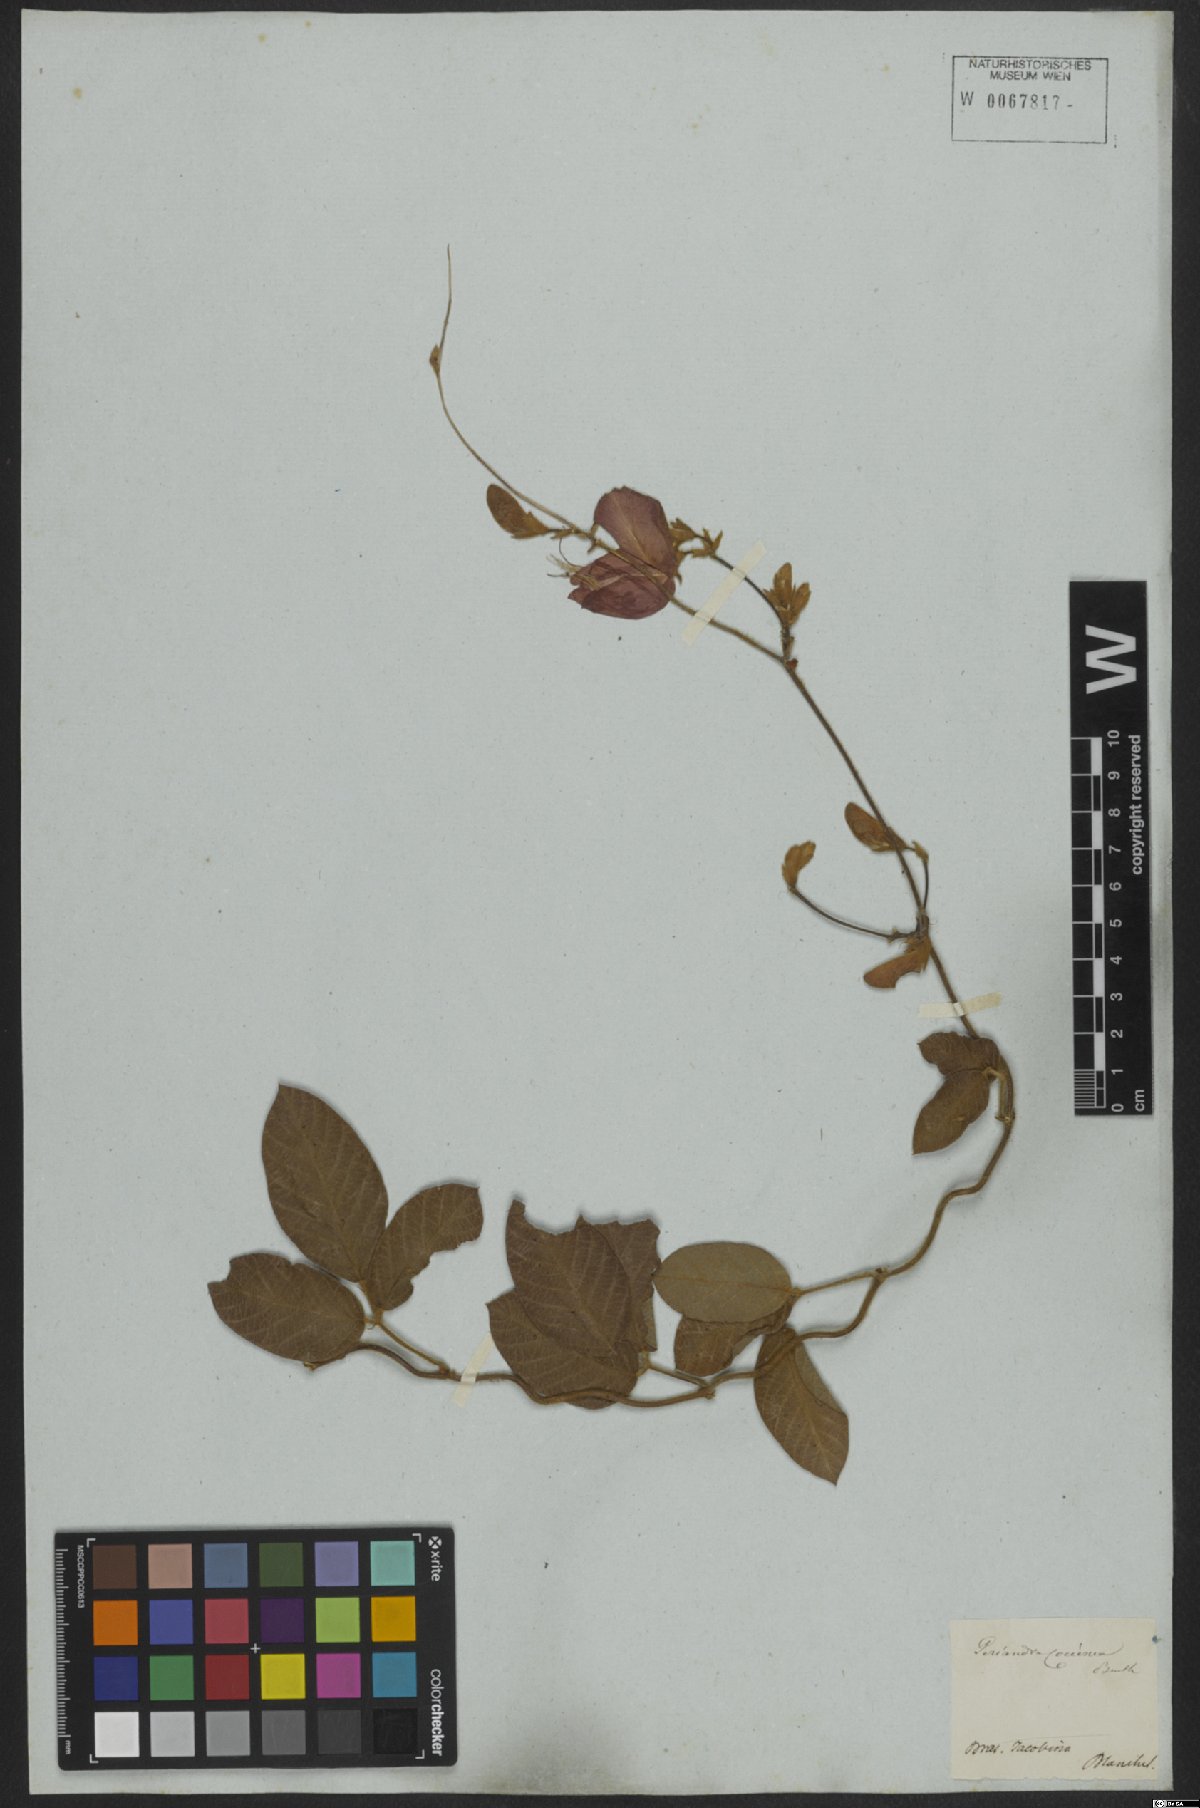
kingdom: Plantae
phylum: Tracheophyta
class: Magnoliopsida
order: Fabales
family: Fabaceae
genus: Periandra
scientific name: Periandra coccinea
